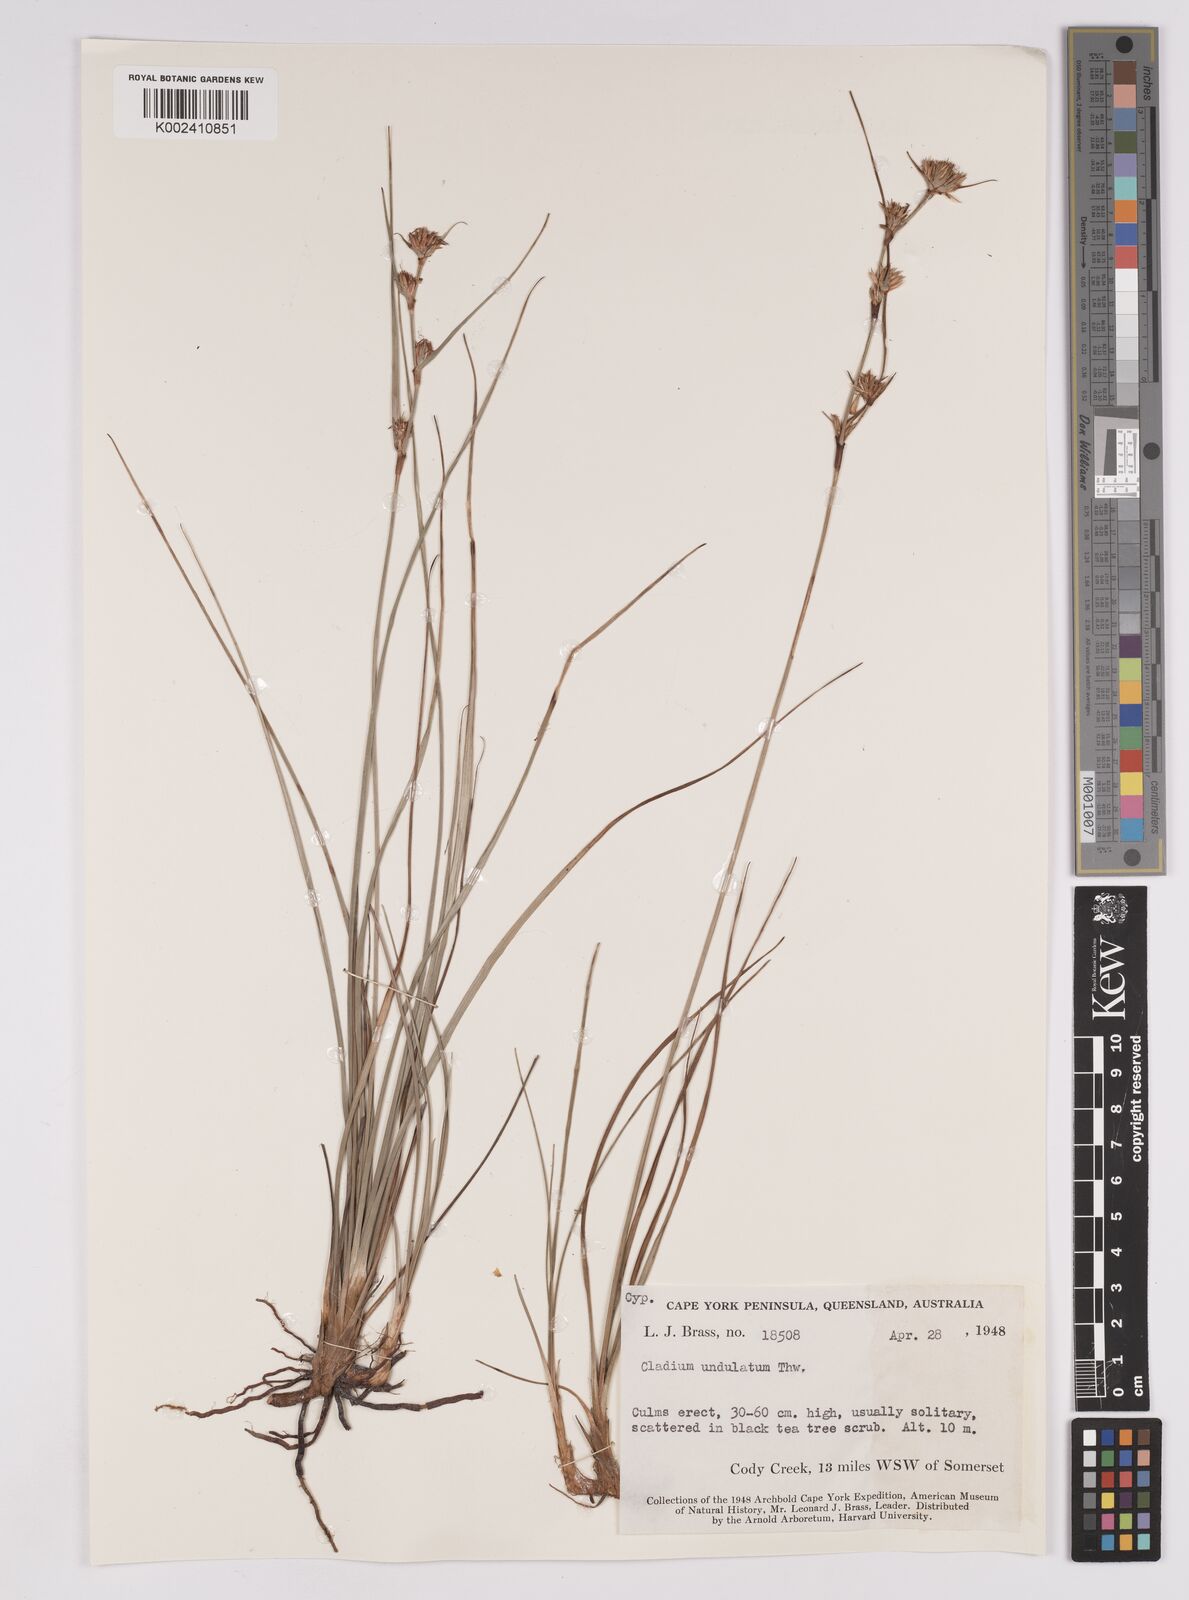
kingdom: Plantae
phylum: Tracheophyta
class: Liliopsida
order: Poales
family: Cyperaceae
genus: Anthelepis
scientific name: Anthelepis undulata
